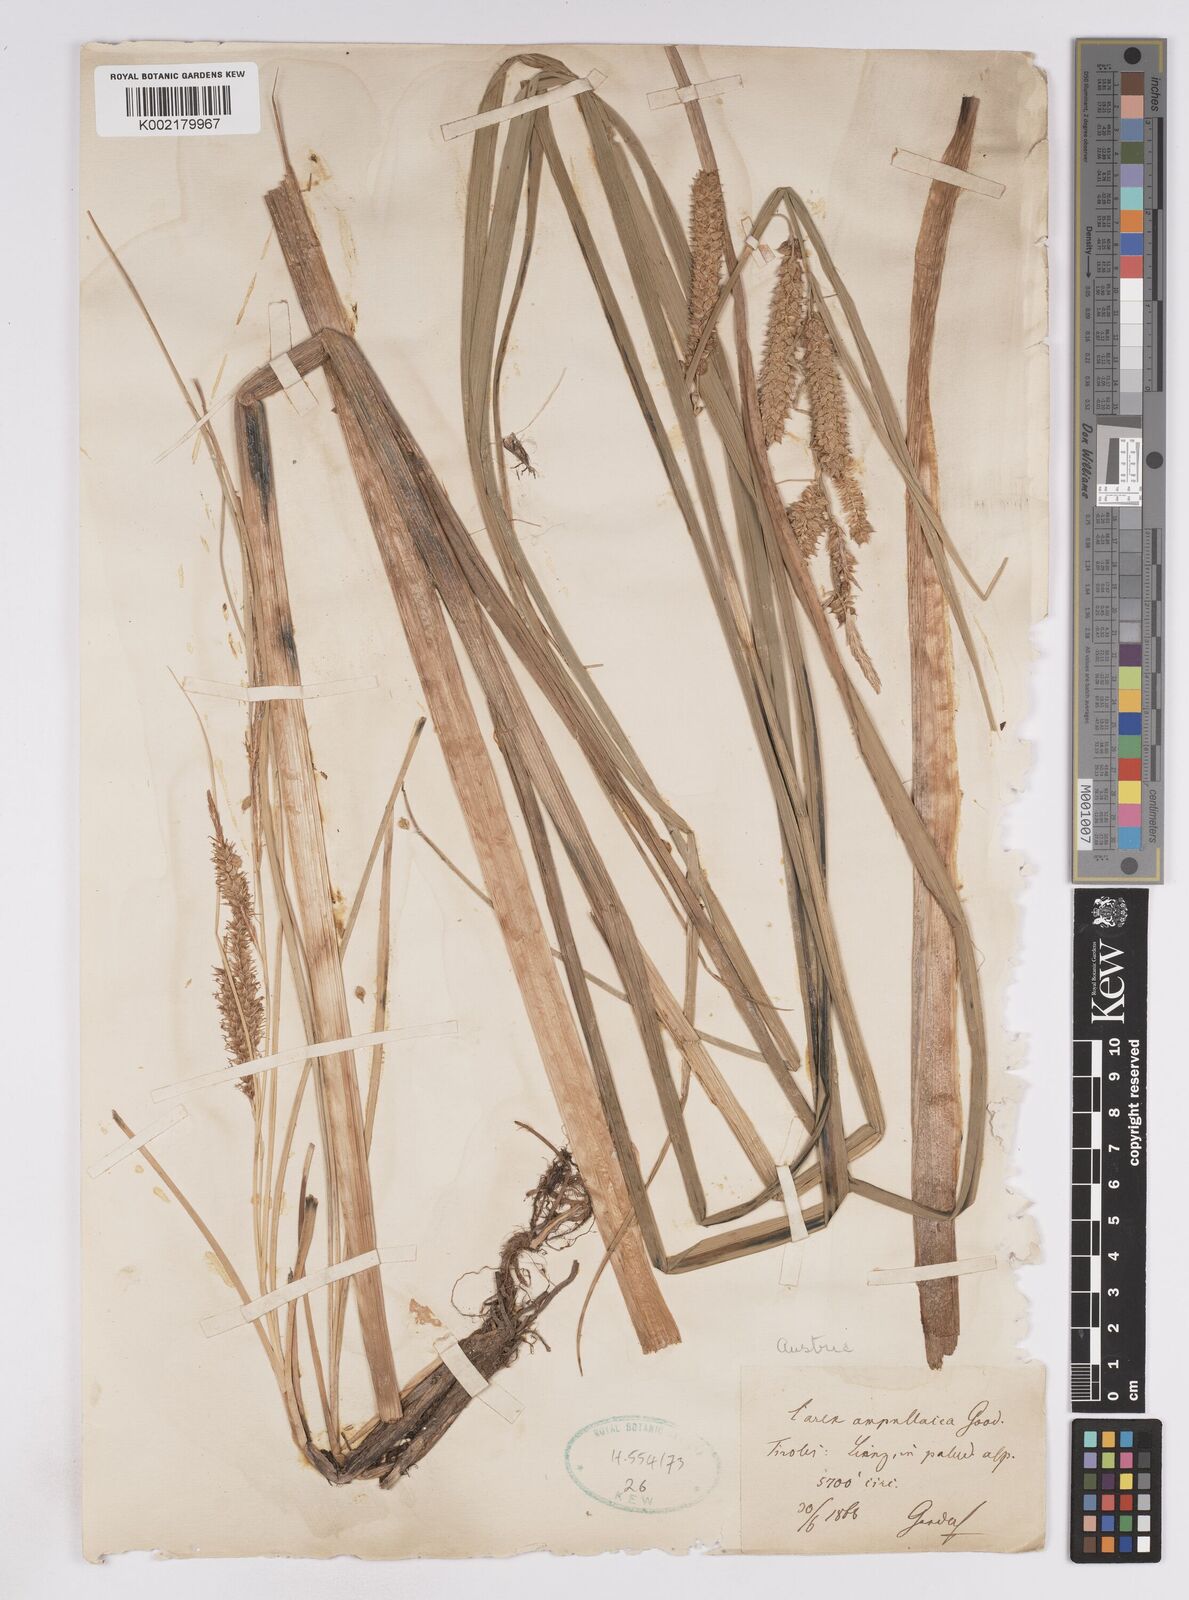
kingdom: Plantae
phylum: Tracheophyta
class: Liliopsida
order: Poales
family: Cyperaceae
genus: Carex
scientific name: Carex utriculata
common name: Beaked sedge
